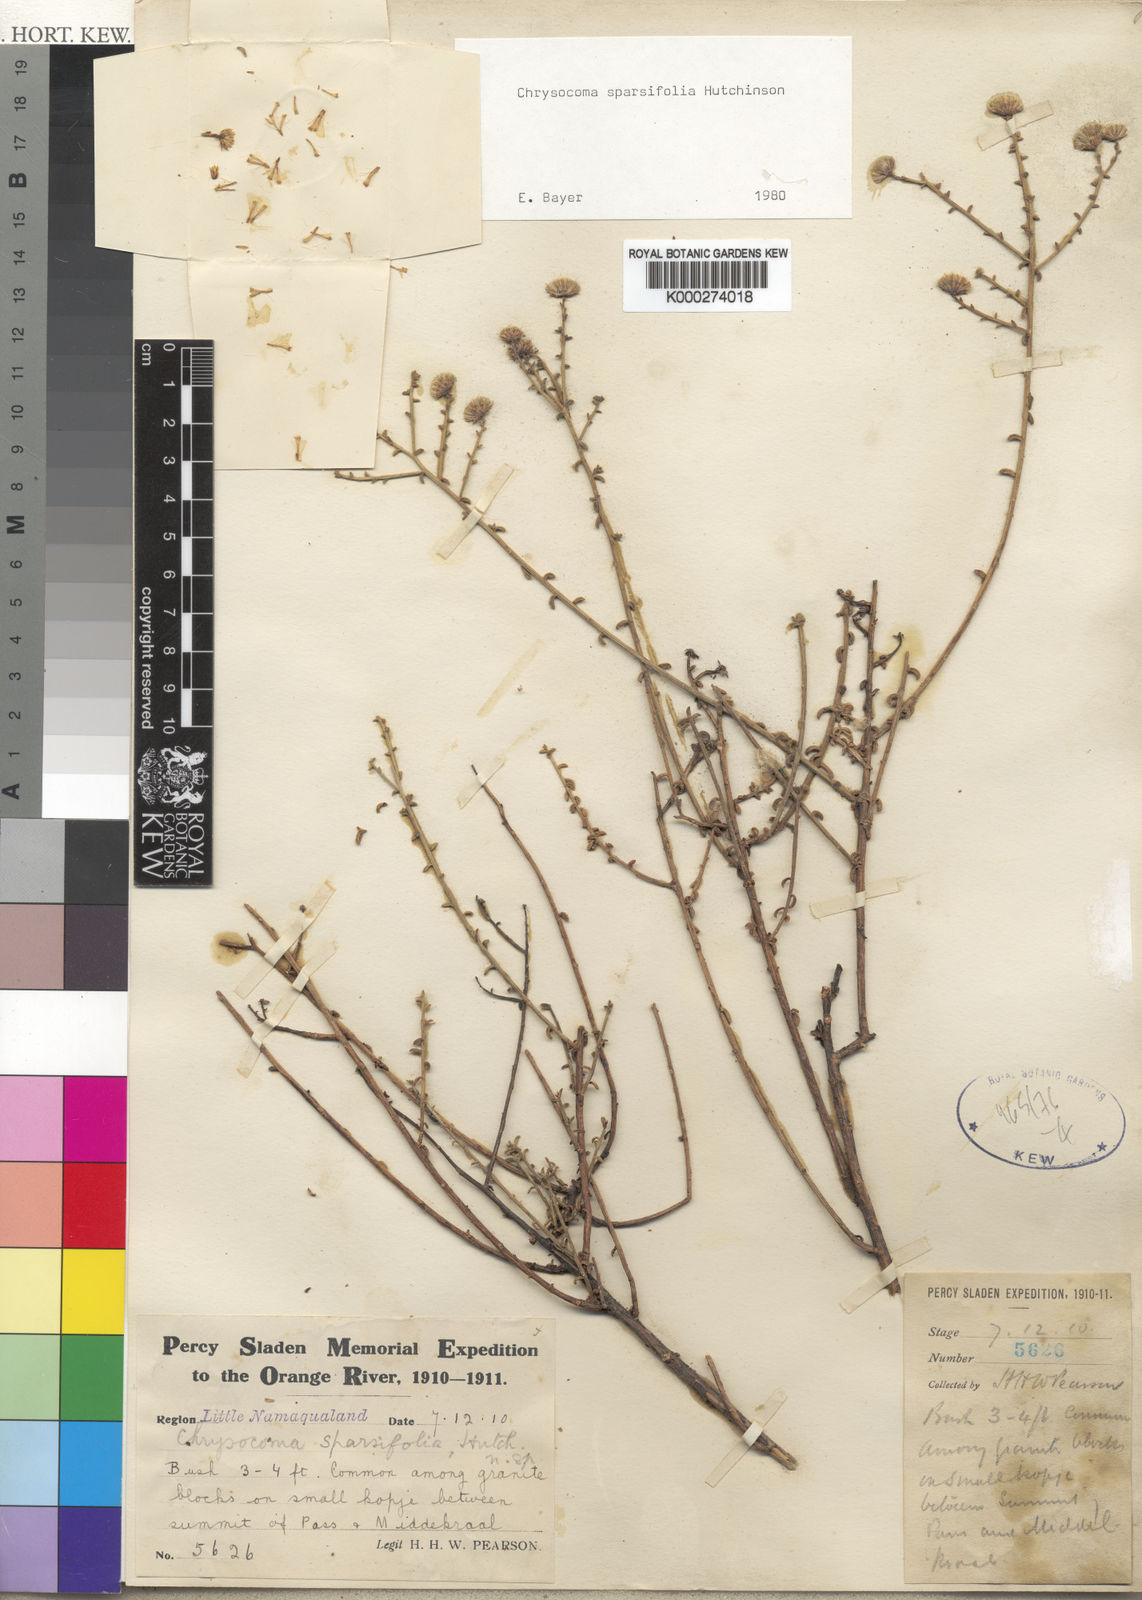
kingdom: Plantae
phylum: Tracheophyta
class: Magnoliopsida
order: Asterales
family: Asteraceae
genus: Chrysocoma
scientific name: Chrysocoma sparsifolia
